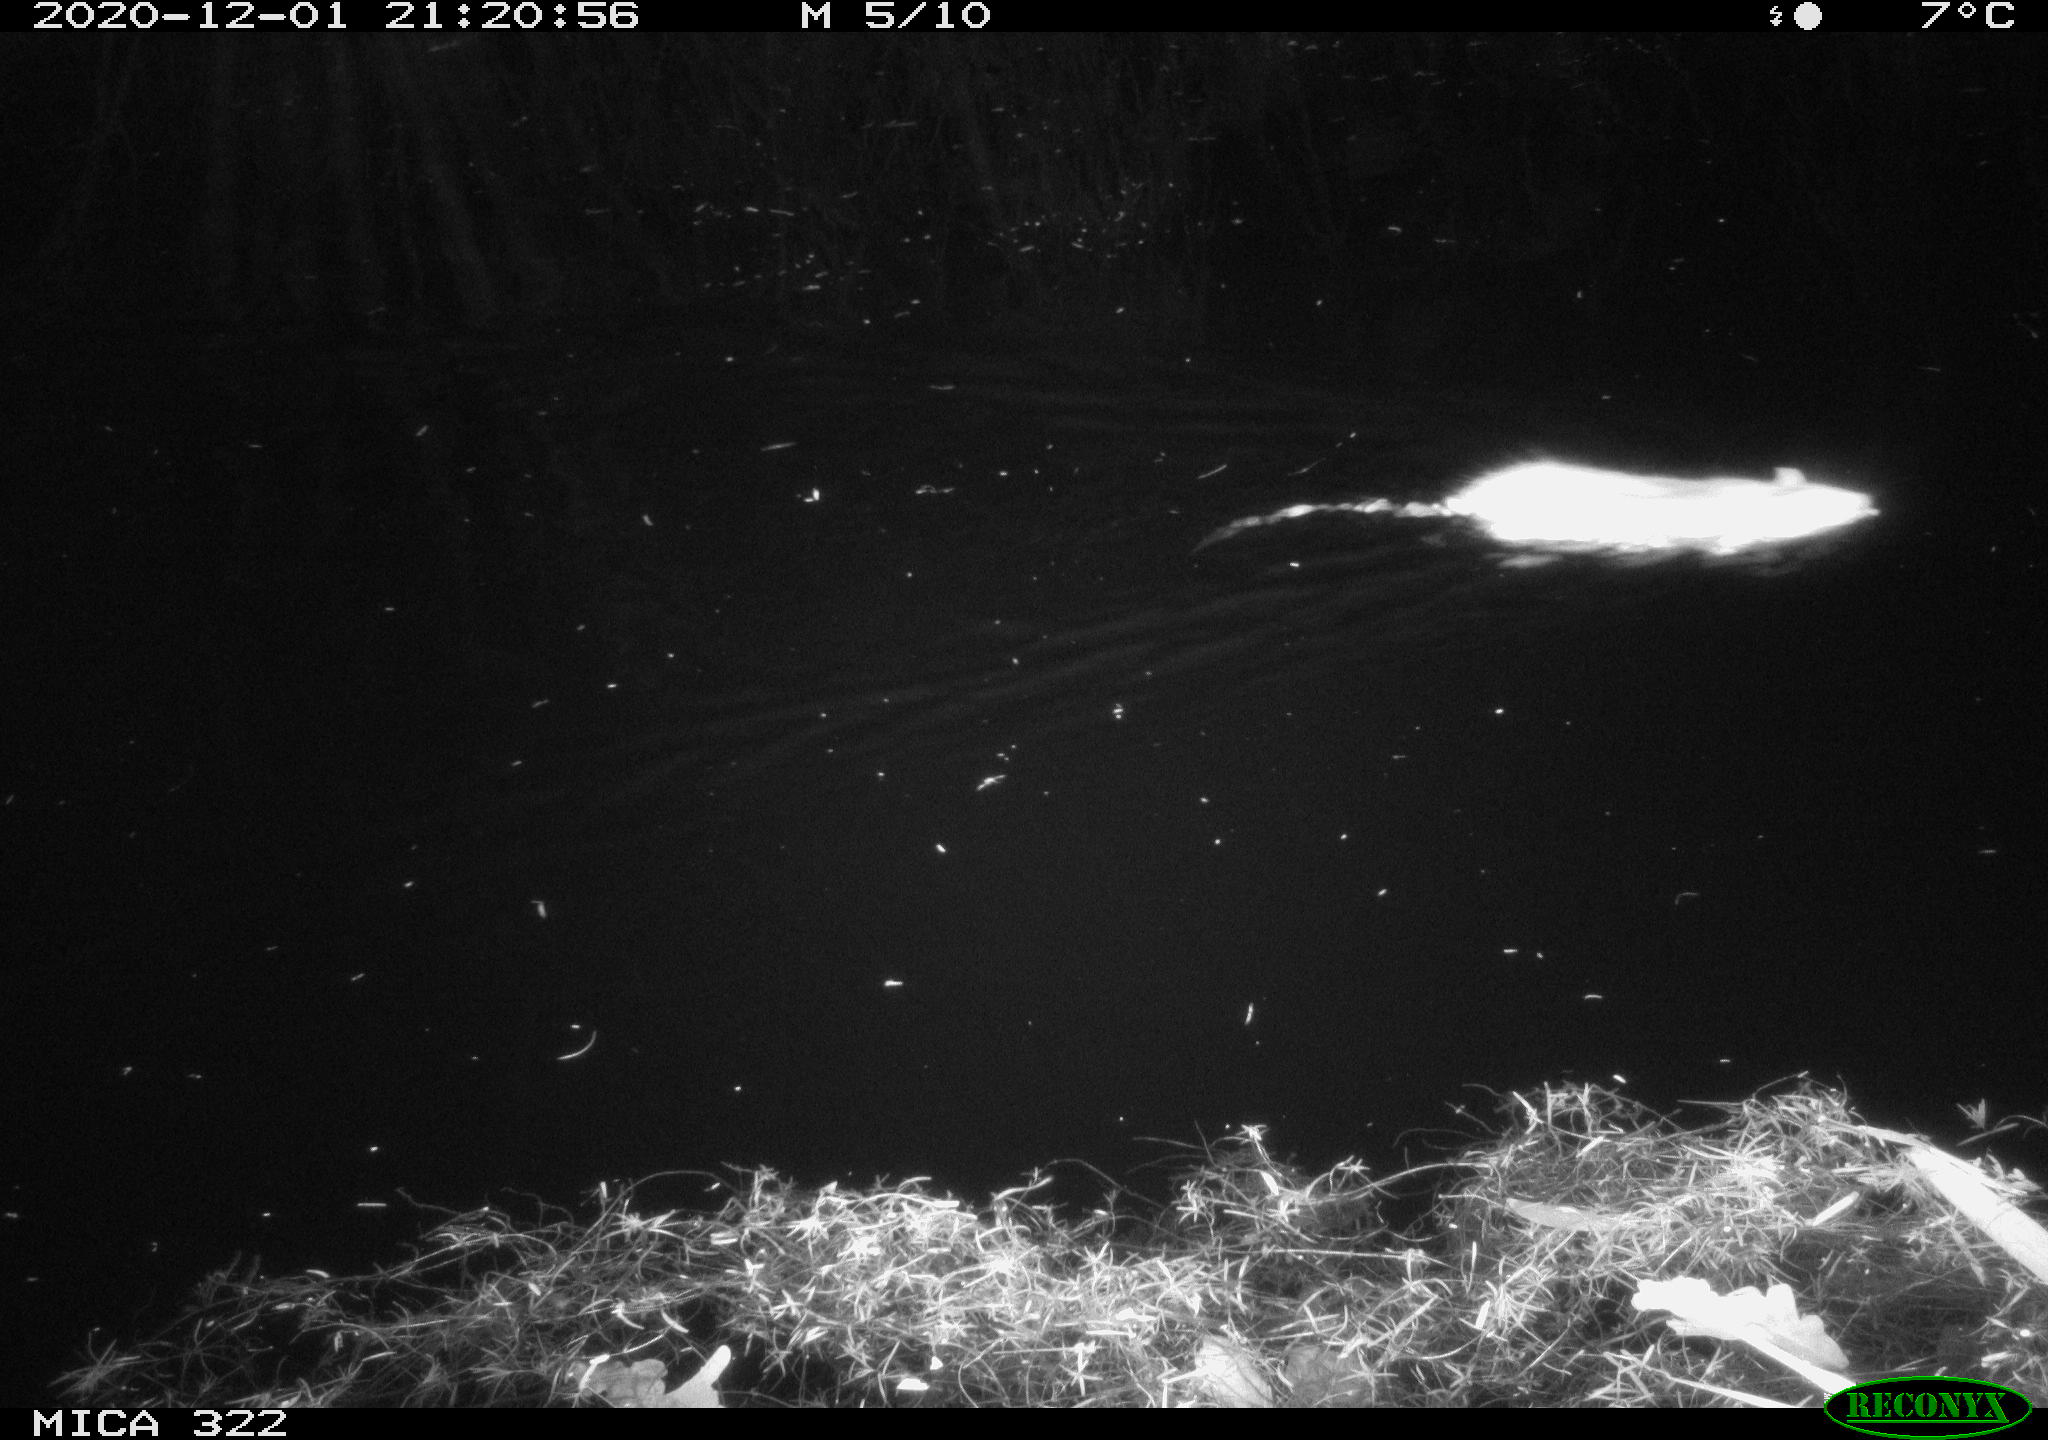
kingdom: Animalia
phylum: Chordata
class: Mammalia
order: Rodentia
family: Muridae
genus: Rattus
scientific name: Rattus norvegicus
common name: Brown rat
